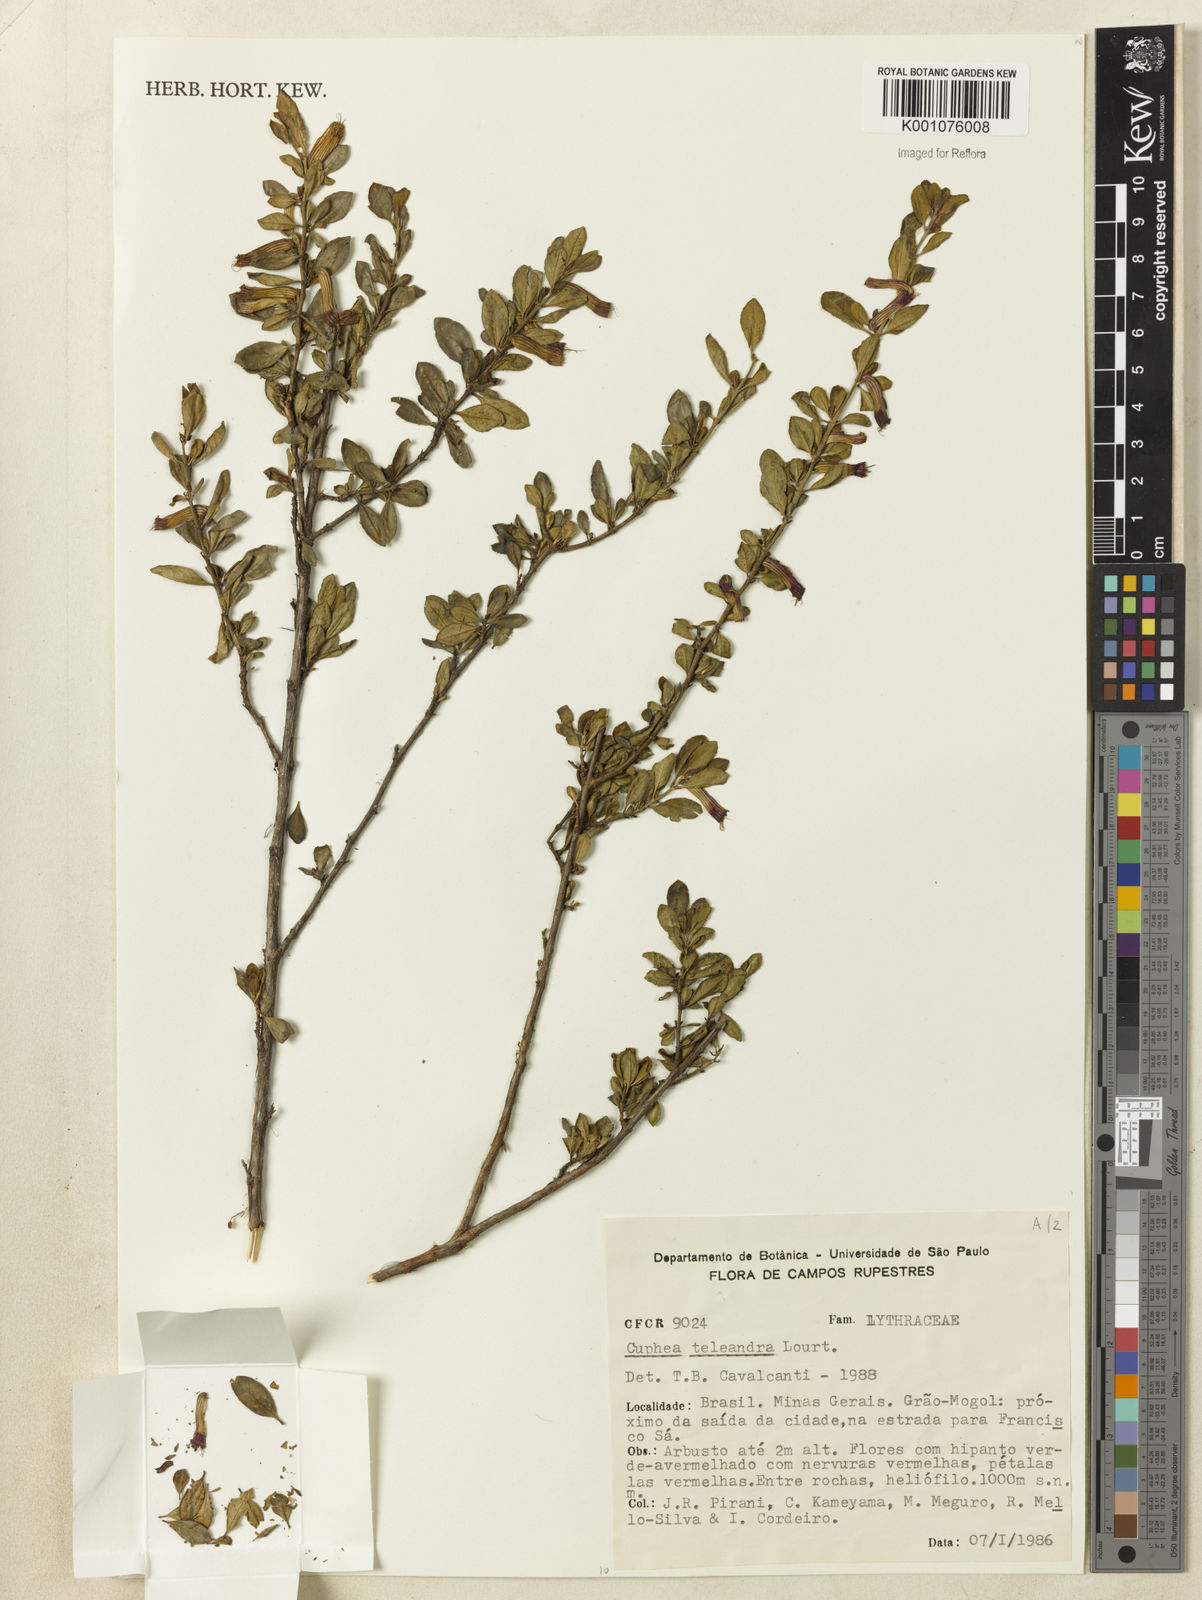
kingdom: Plantae
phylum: Tracheophyta
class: Magnoliopsida
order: Myrtales
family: Lythraceae
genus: Cuphea
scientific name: Cuphea teleandra
